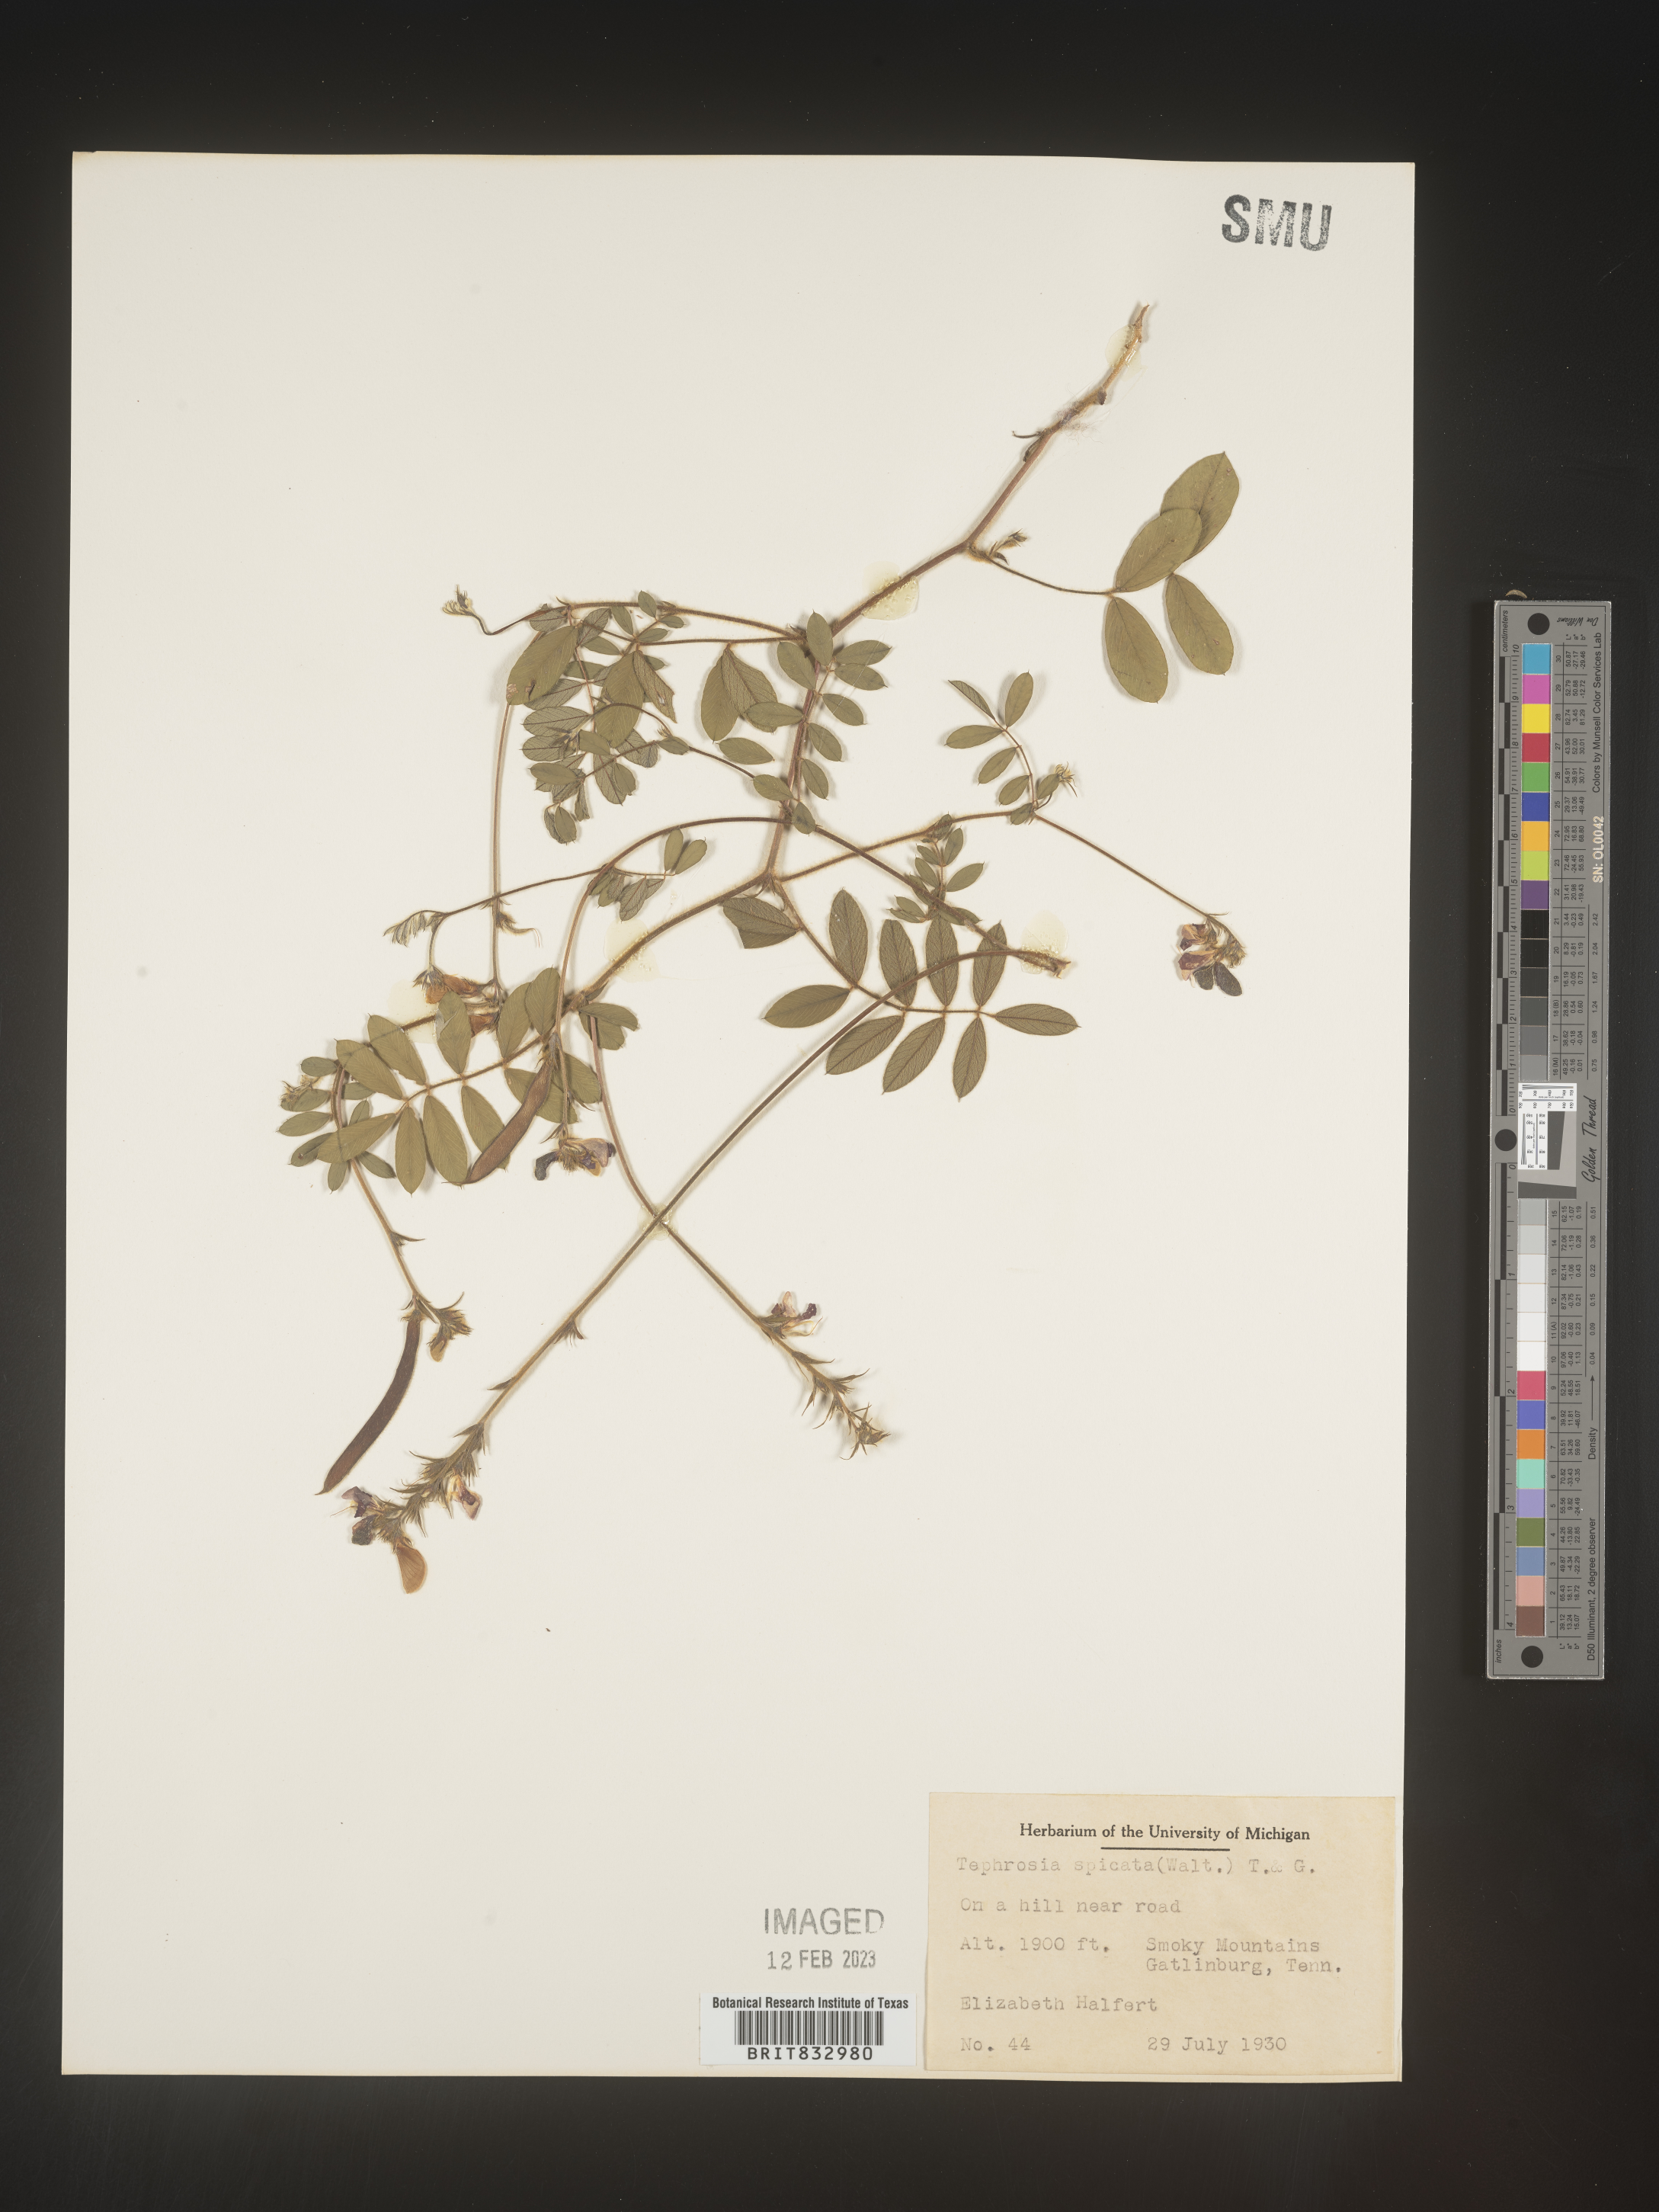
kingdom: Plantae
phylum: Tracheophyta
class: Magnoliopsida
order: Fabales
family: Fabaceae
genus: Tephrosia
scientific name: Tephrosia spicata
